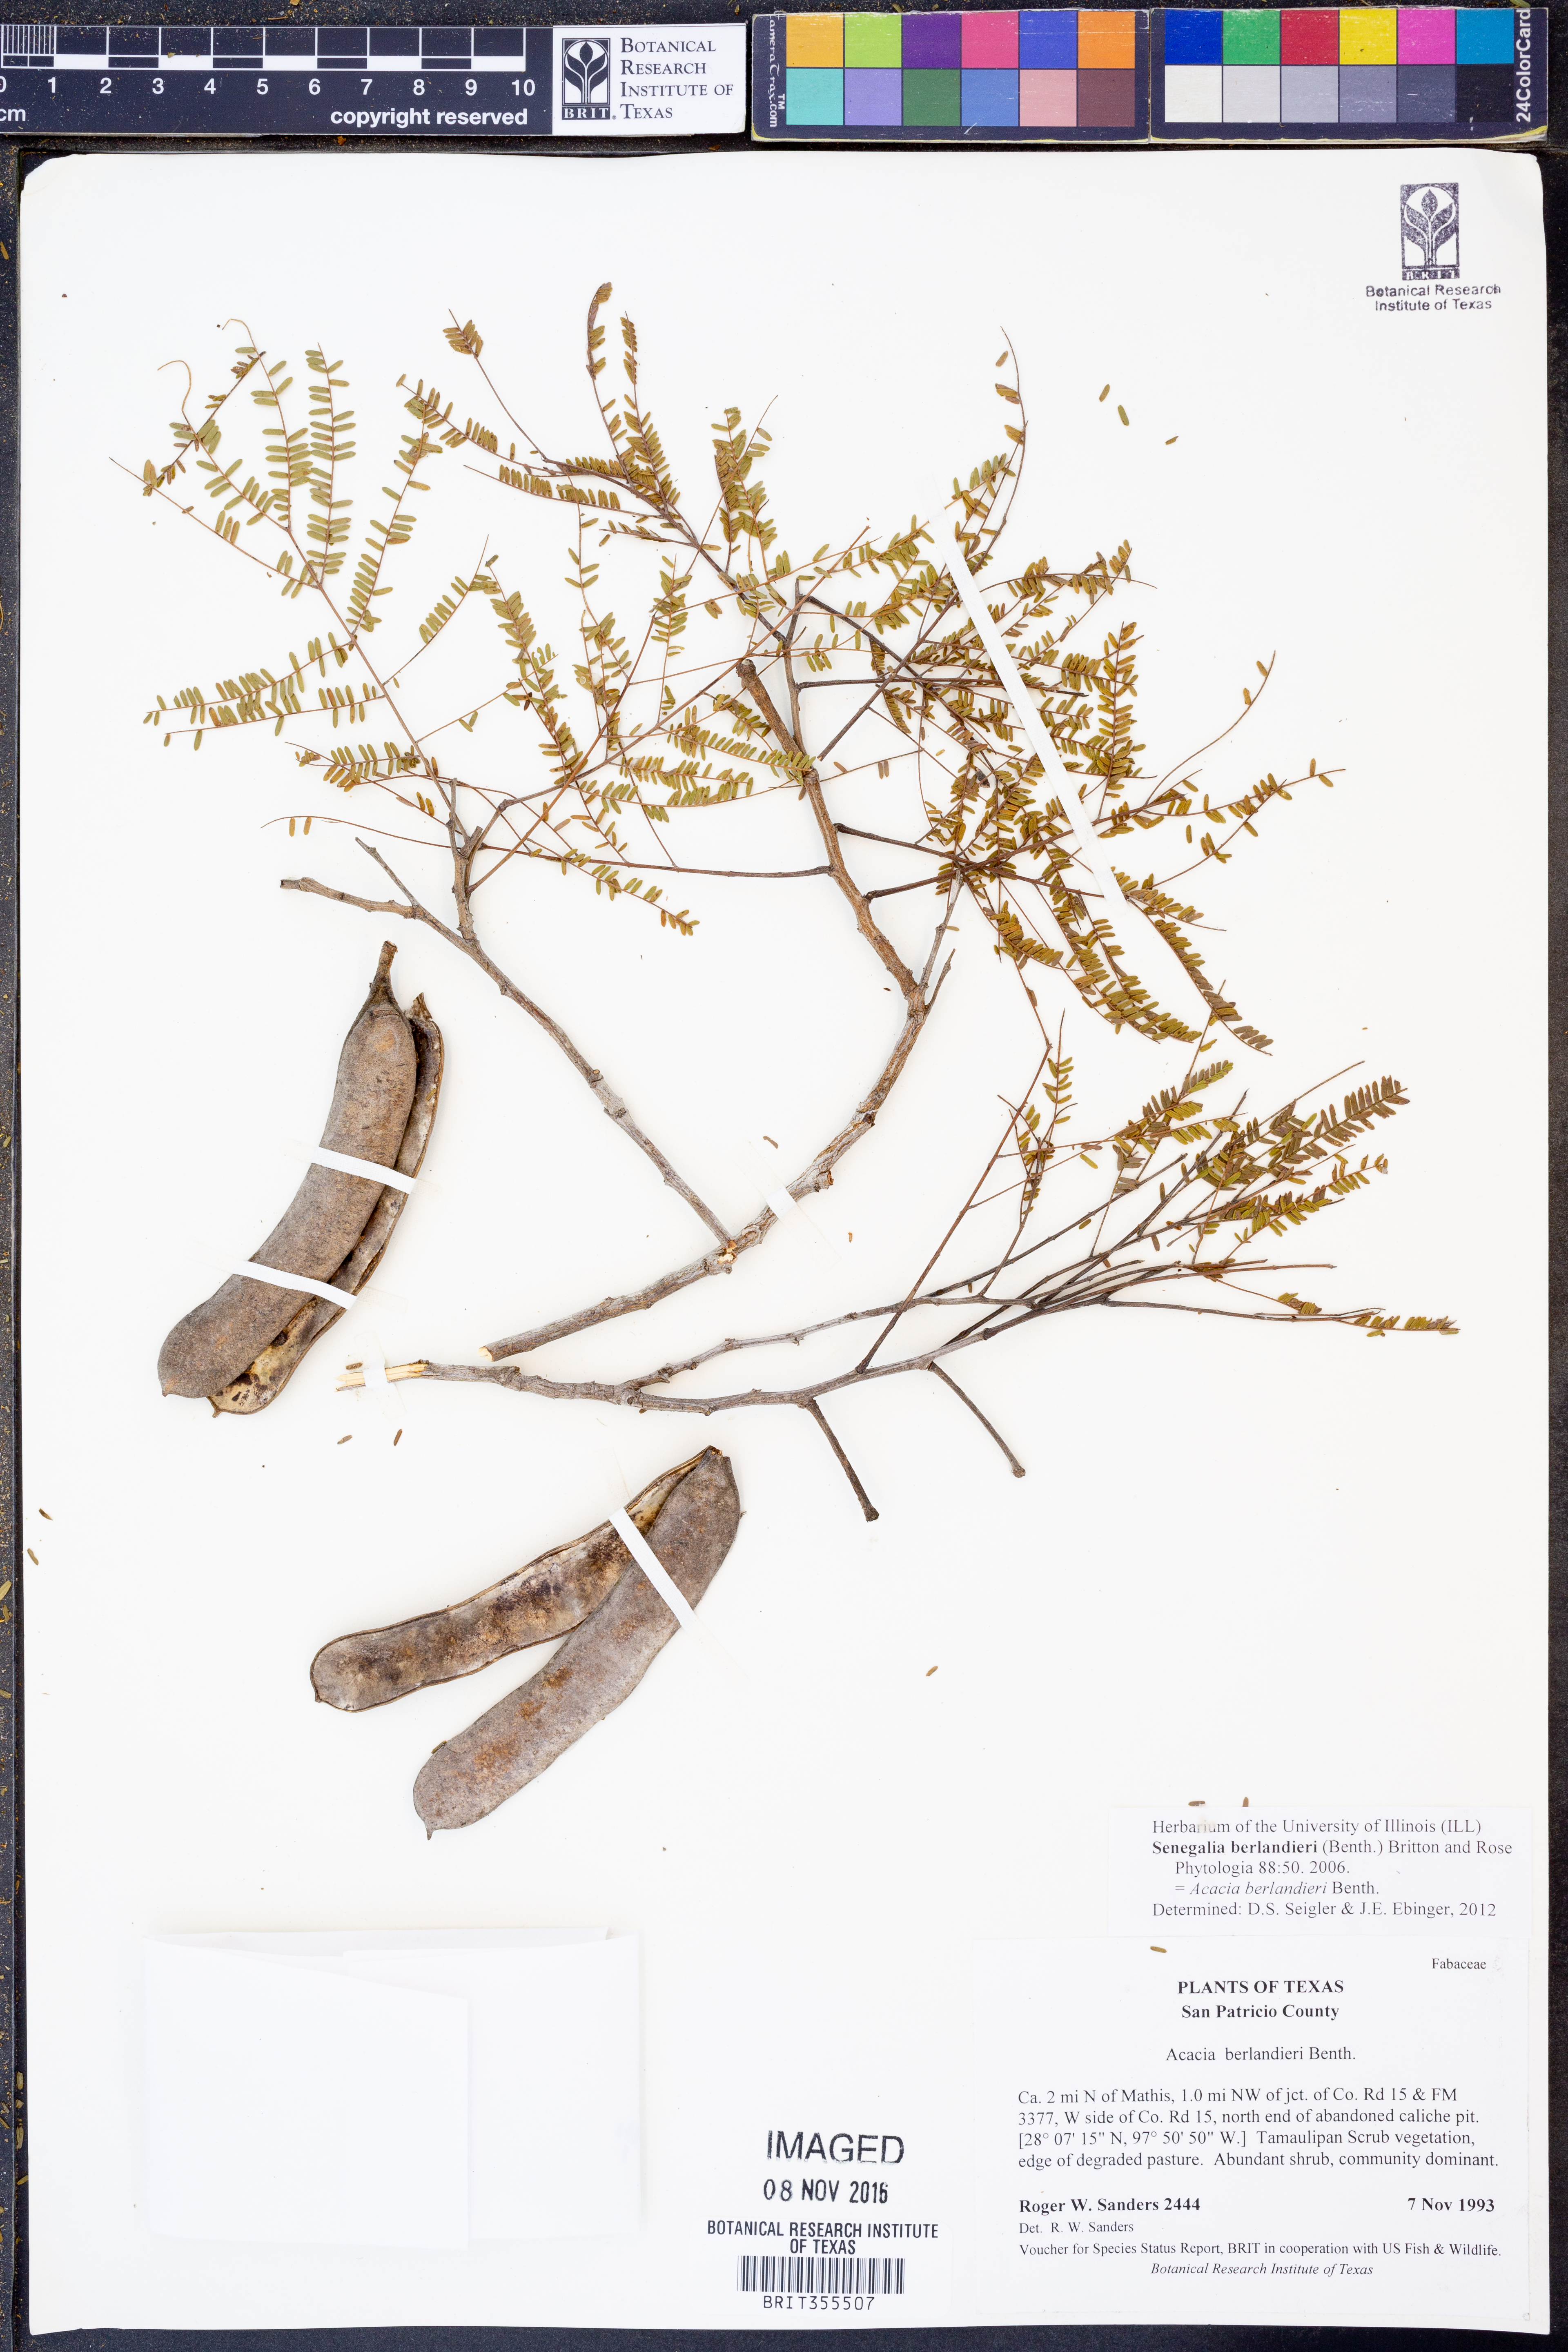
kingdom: Plantae
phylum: Tracheophyta
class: Magnoliopsida
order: Fabales
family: Fabaceae
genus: Senegalia
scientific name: Senegalia berlandieri
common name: Berlandier acacia
